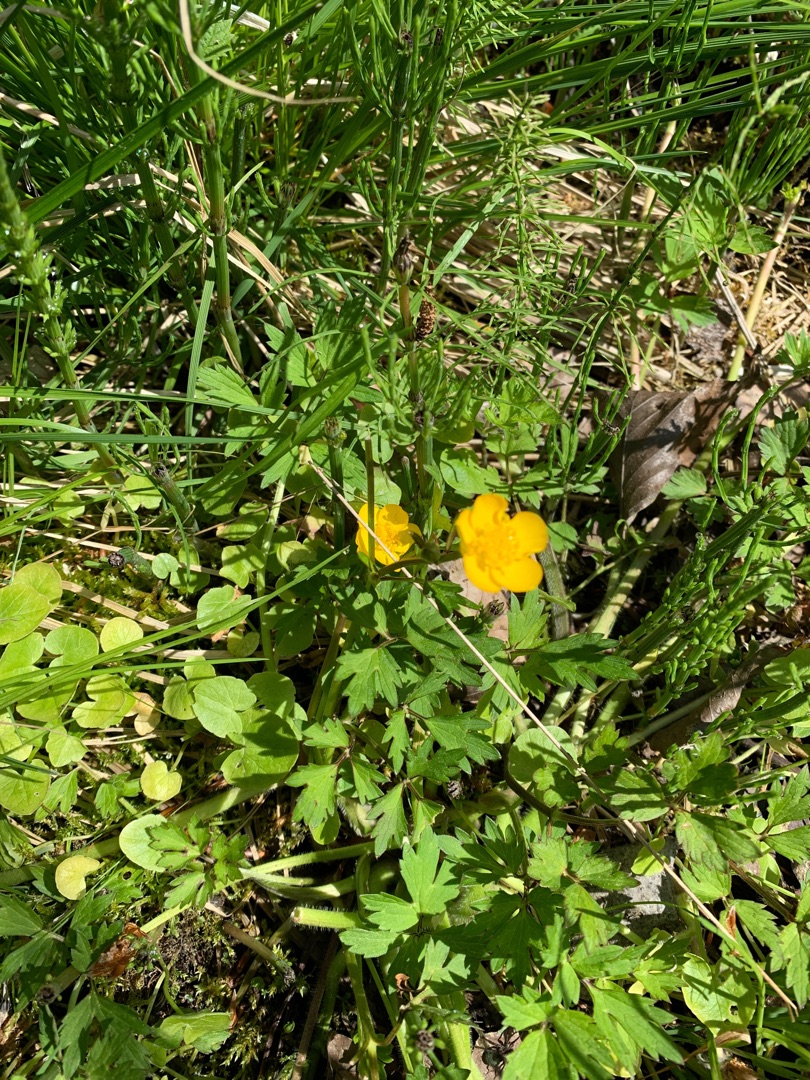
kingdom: Plantae
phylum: Tracheophyta
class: Magnoliopsida
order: Ranunculales
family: Ranunculaceae
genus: Ranunculus
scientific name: Ranunculus repens
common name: Lav ranunkel
